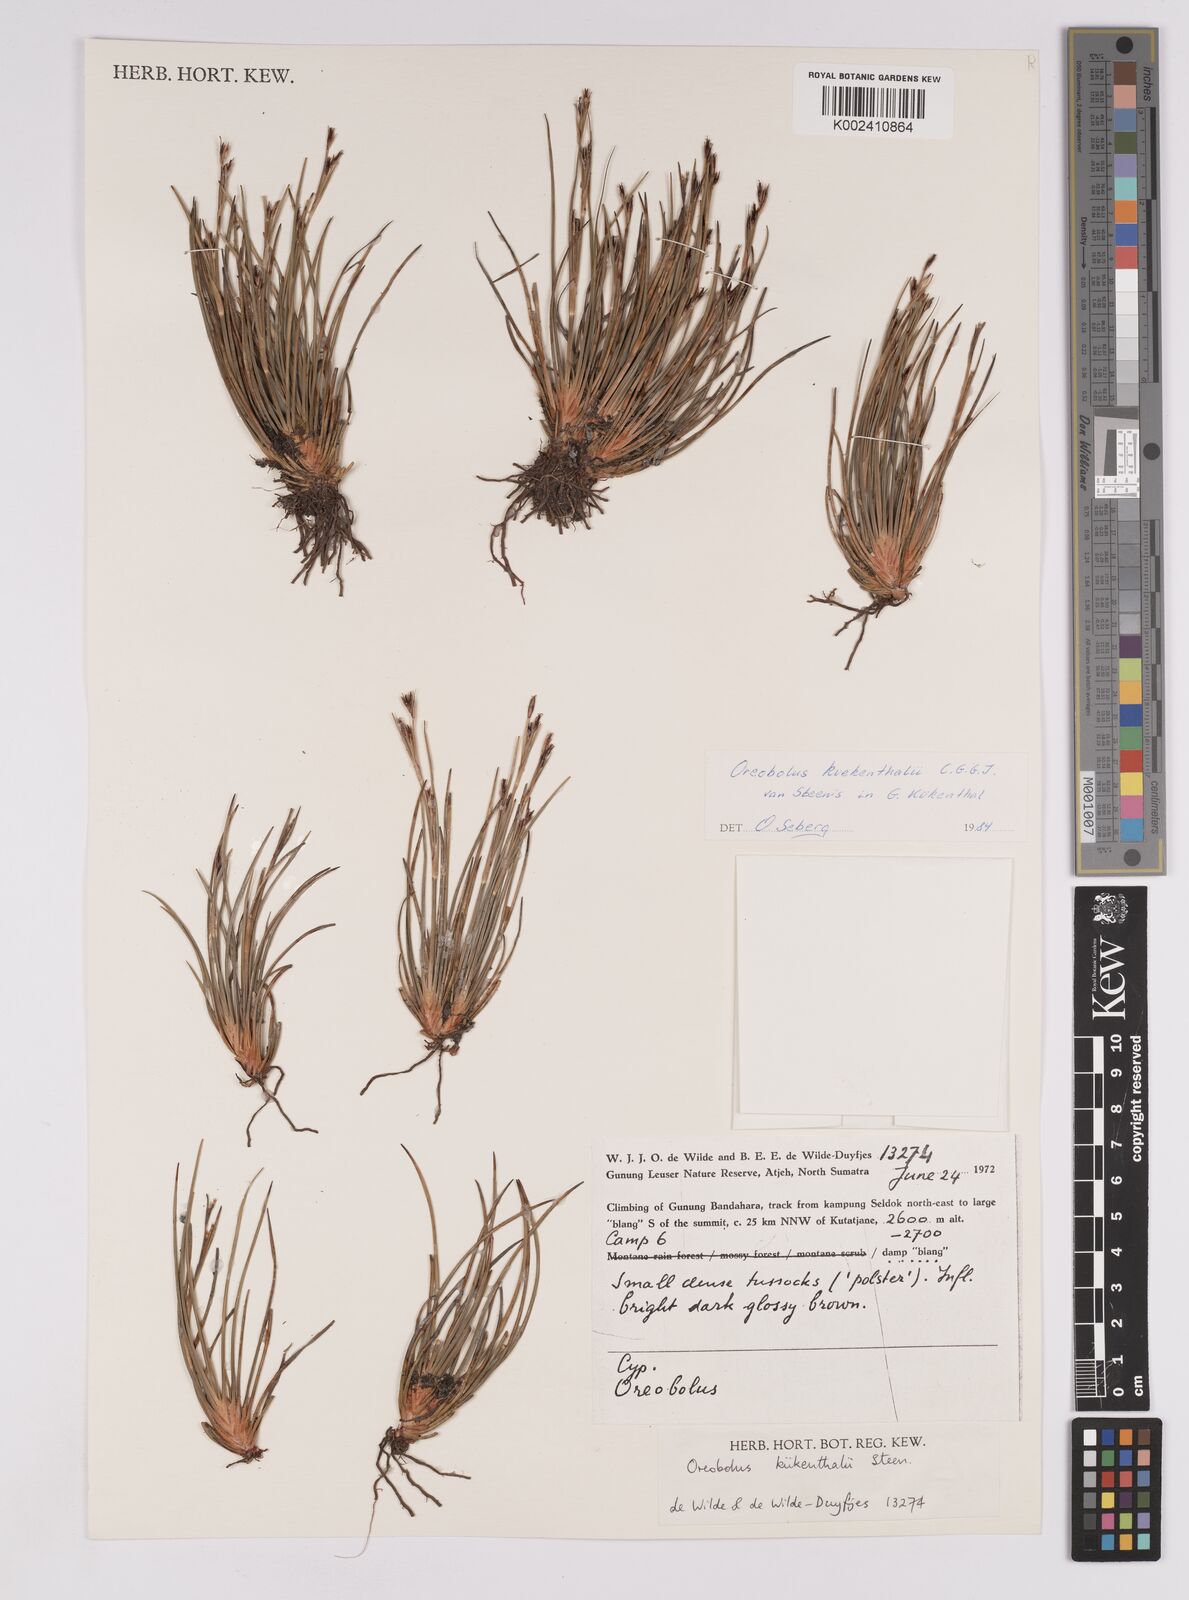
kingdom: Plantae
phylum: Tracheophyta
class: Liliopsida
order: Poales
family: Cyperaceae
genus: Oreobolus
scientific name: Oreobolus kuekenthalii
